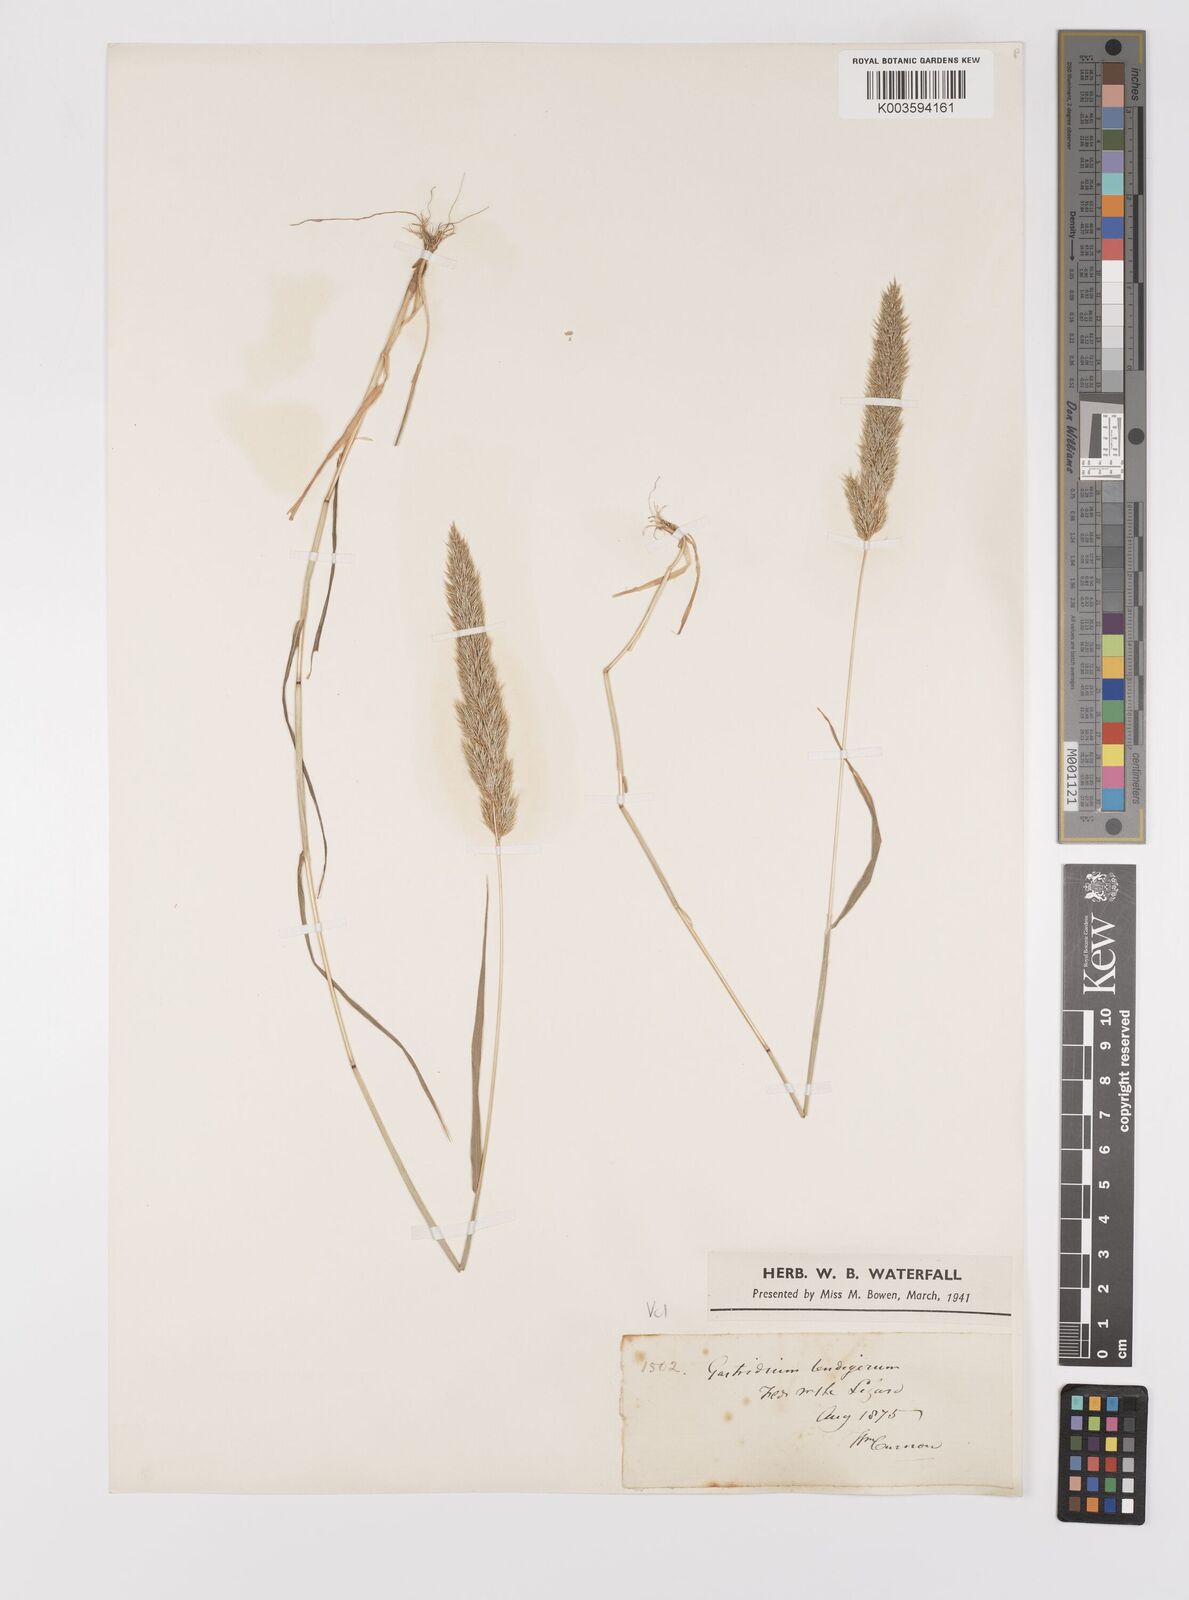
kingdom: Plantae
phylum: Tracheophyta
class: Liliopsida
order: Poales
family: Poaceae
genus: Gastridium
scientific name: Gastridium ventricosum
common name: Nit-grass
